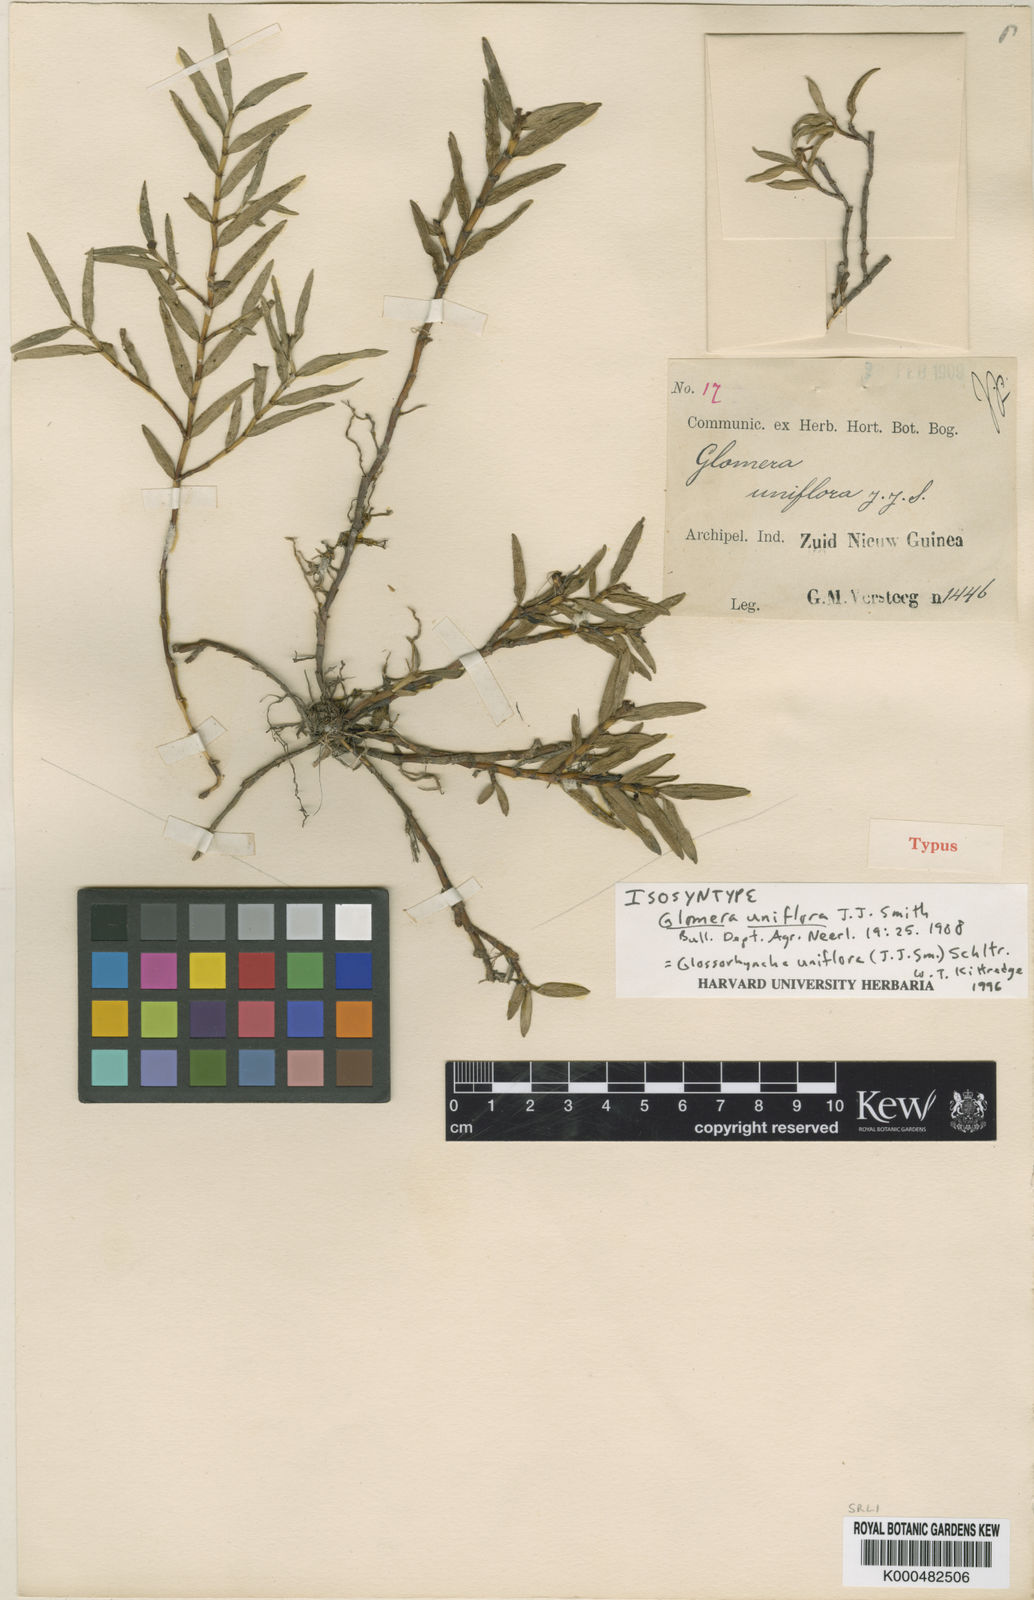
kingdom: Plantae
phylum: Tracheophyta
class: Liliopsida
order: Asparagales
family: Orchidaceae
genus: Glomera
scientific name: Glomera squamulosa
